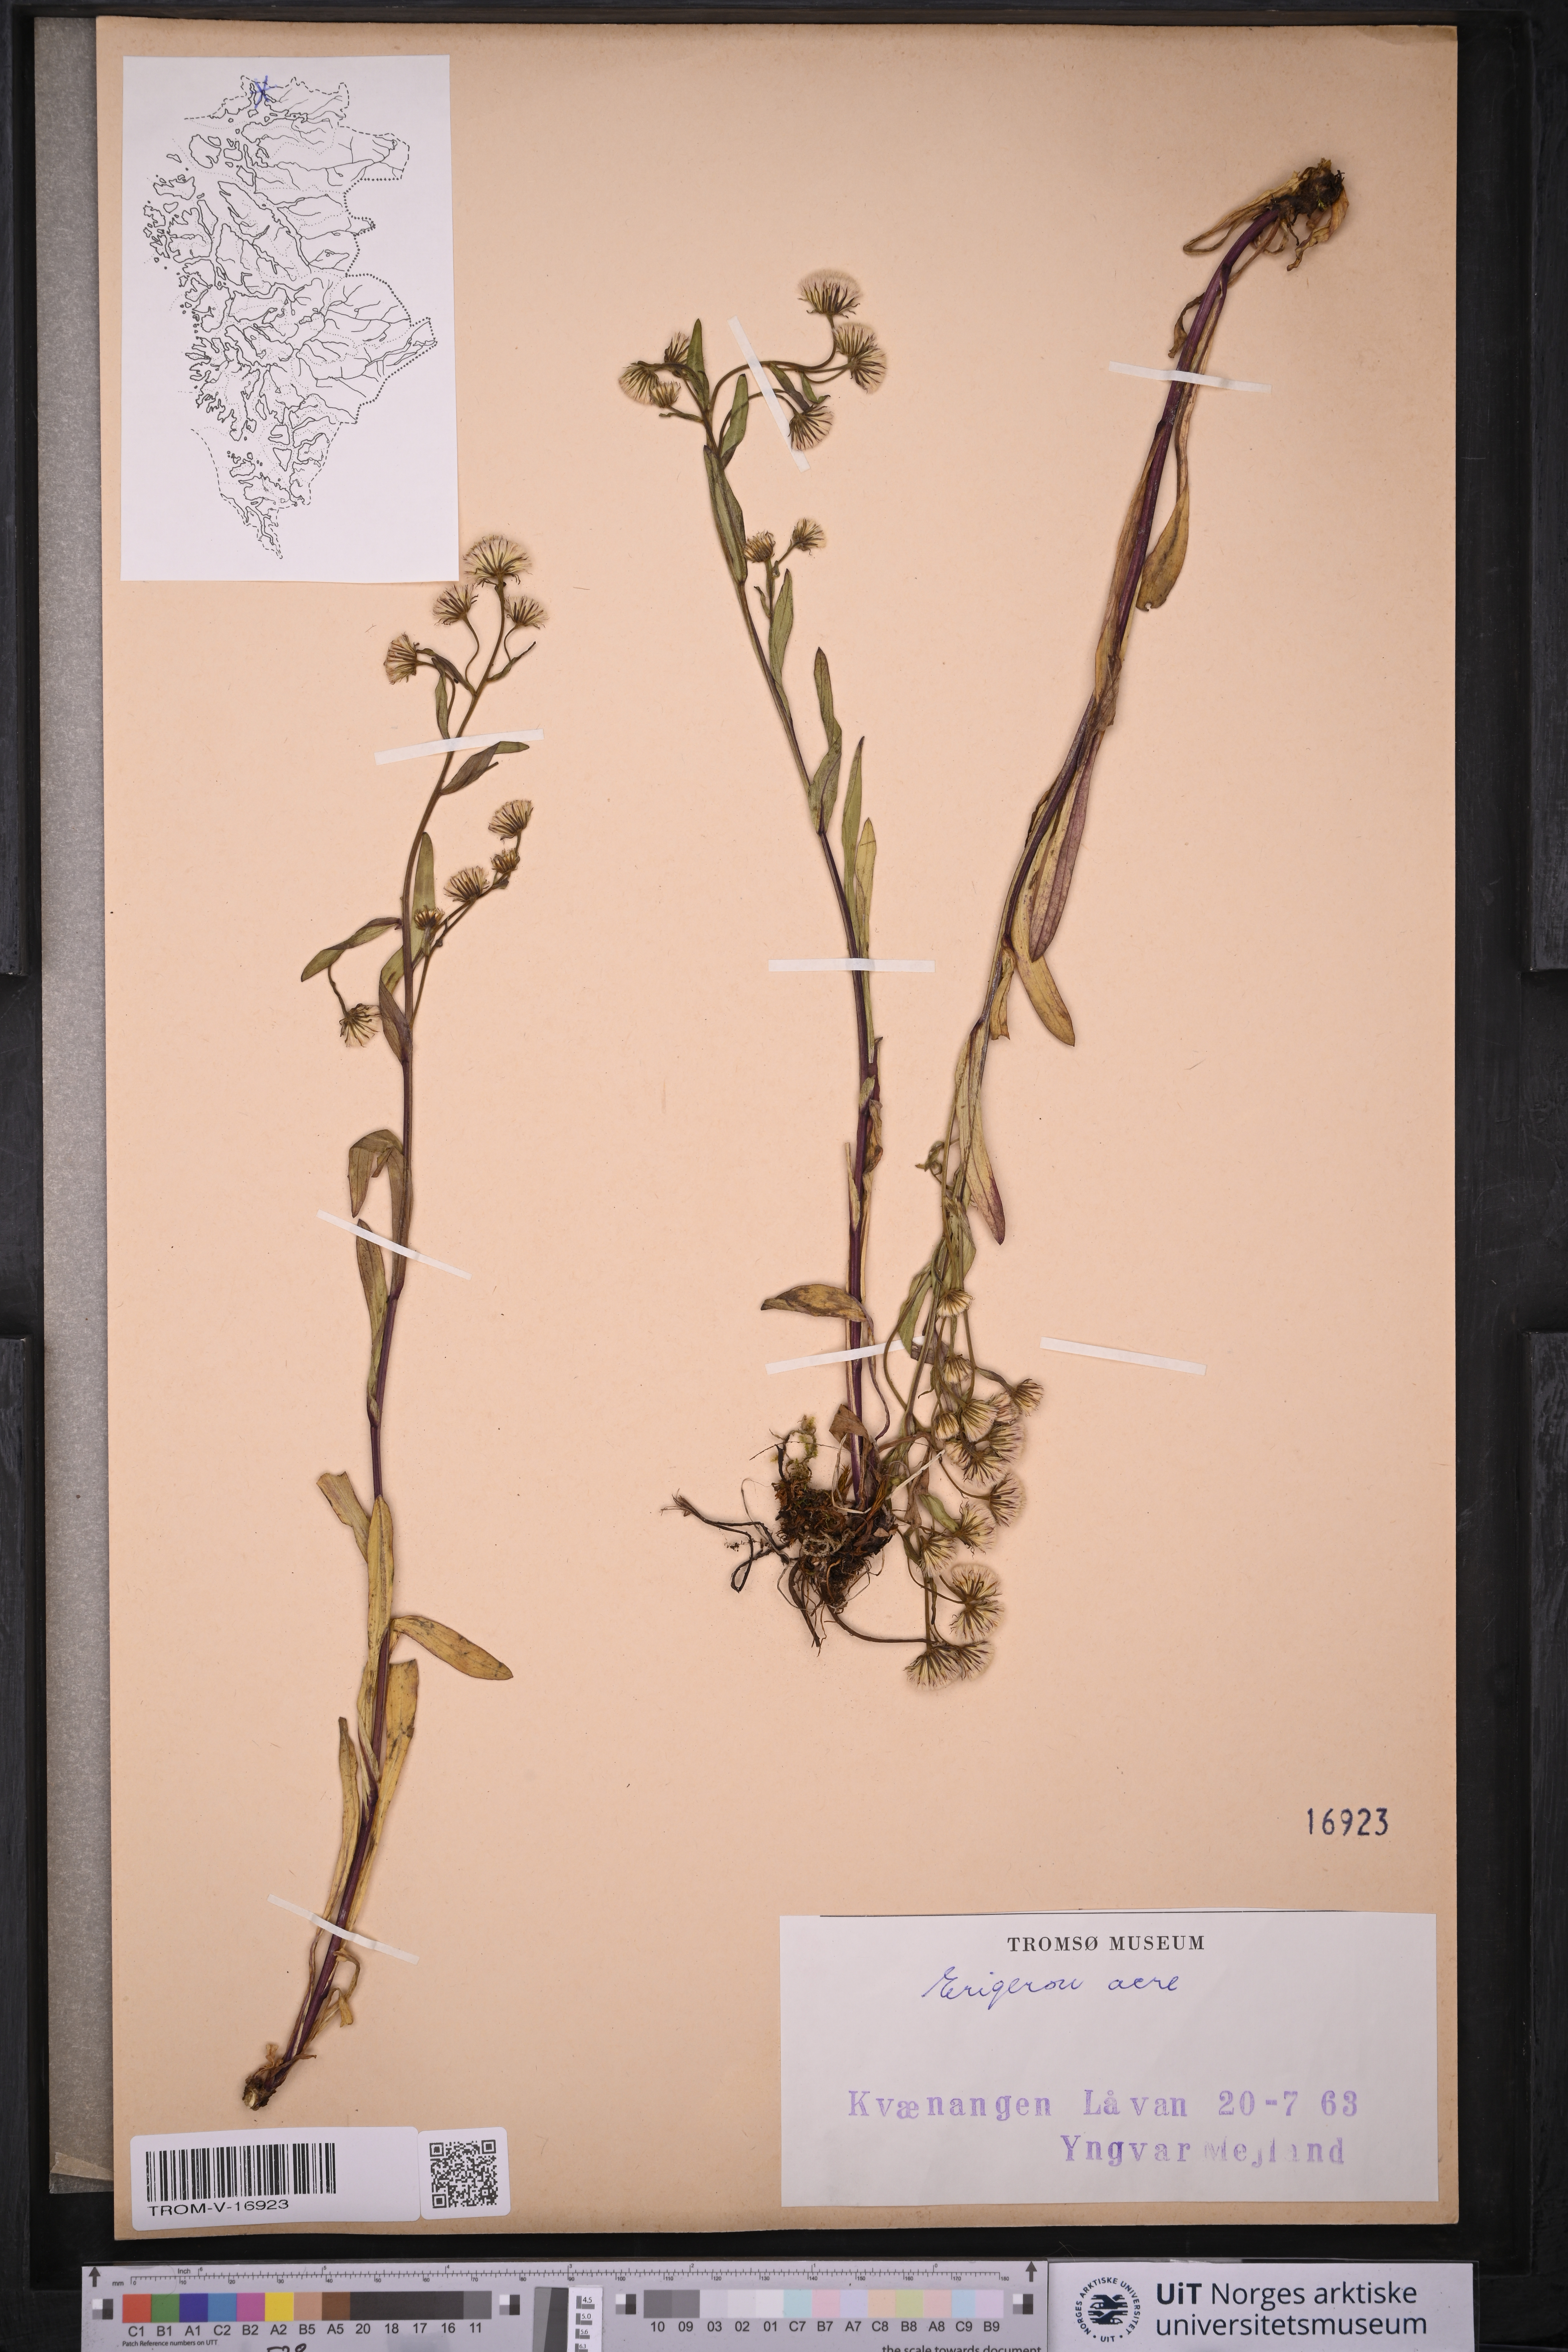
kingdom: Plantae
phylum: Tracheophyta
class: Magnoliopsida
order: Asterales
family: Asteraceae
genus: Erigeron
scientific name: Erigeron acris
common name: Blue fleabane
